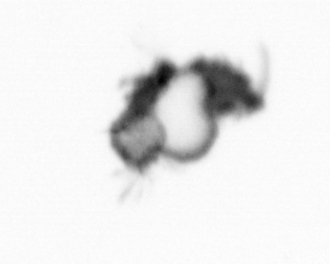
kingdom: Animalia
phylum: Annelida
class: Polychaeta
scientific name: Polychaeta
